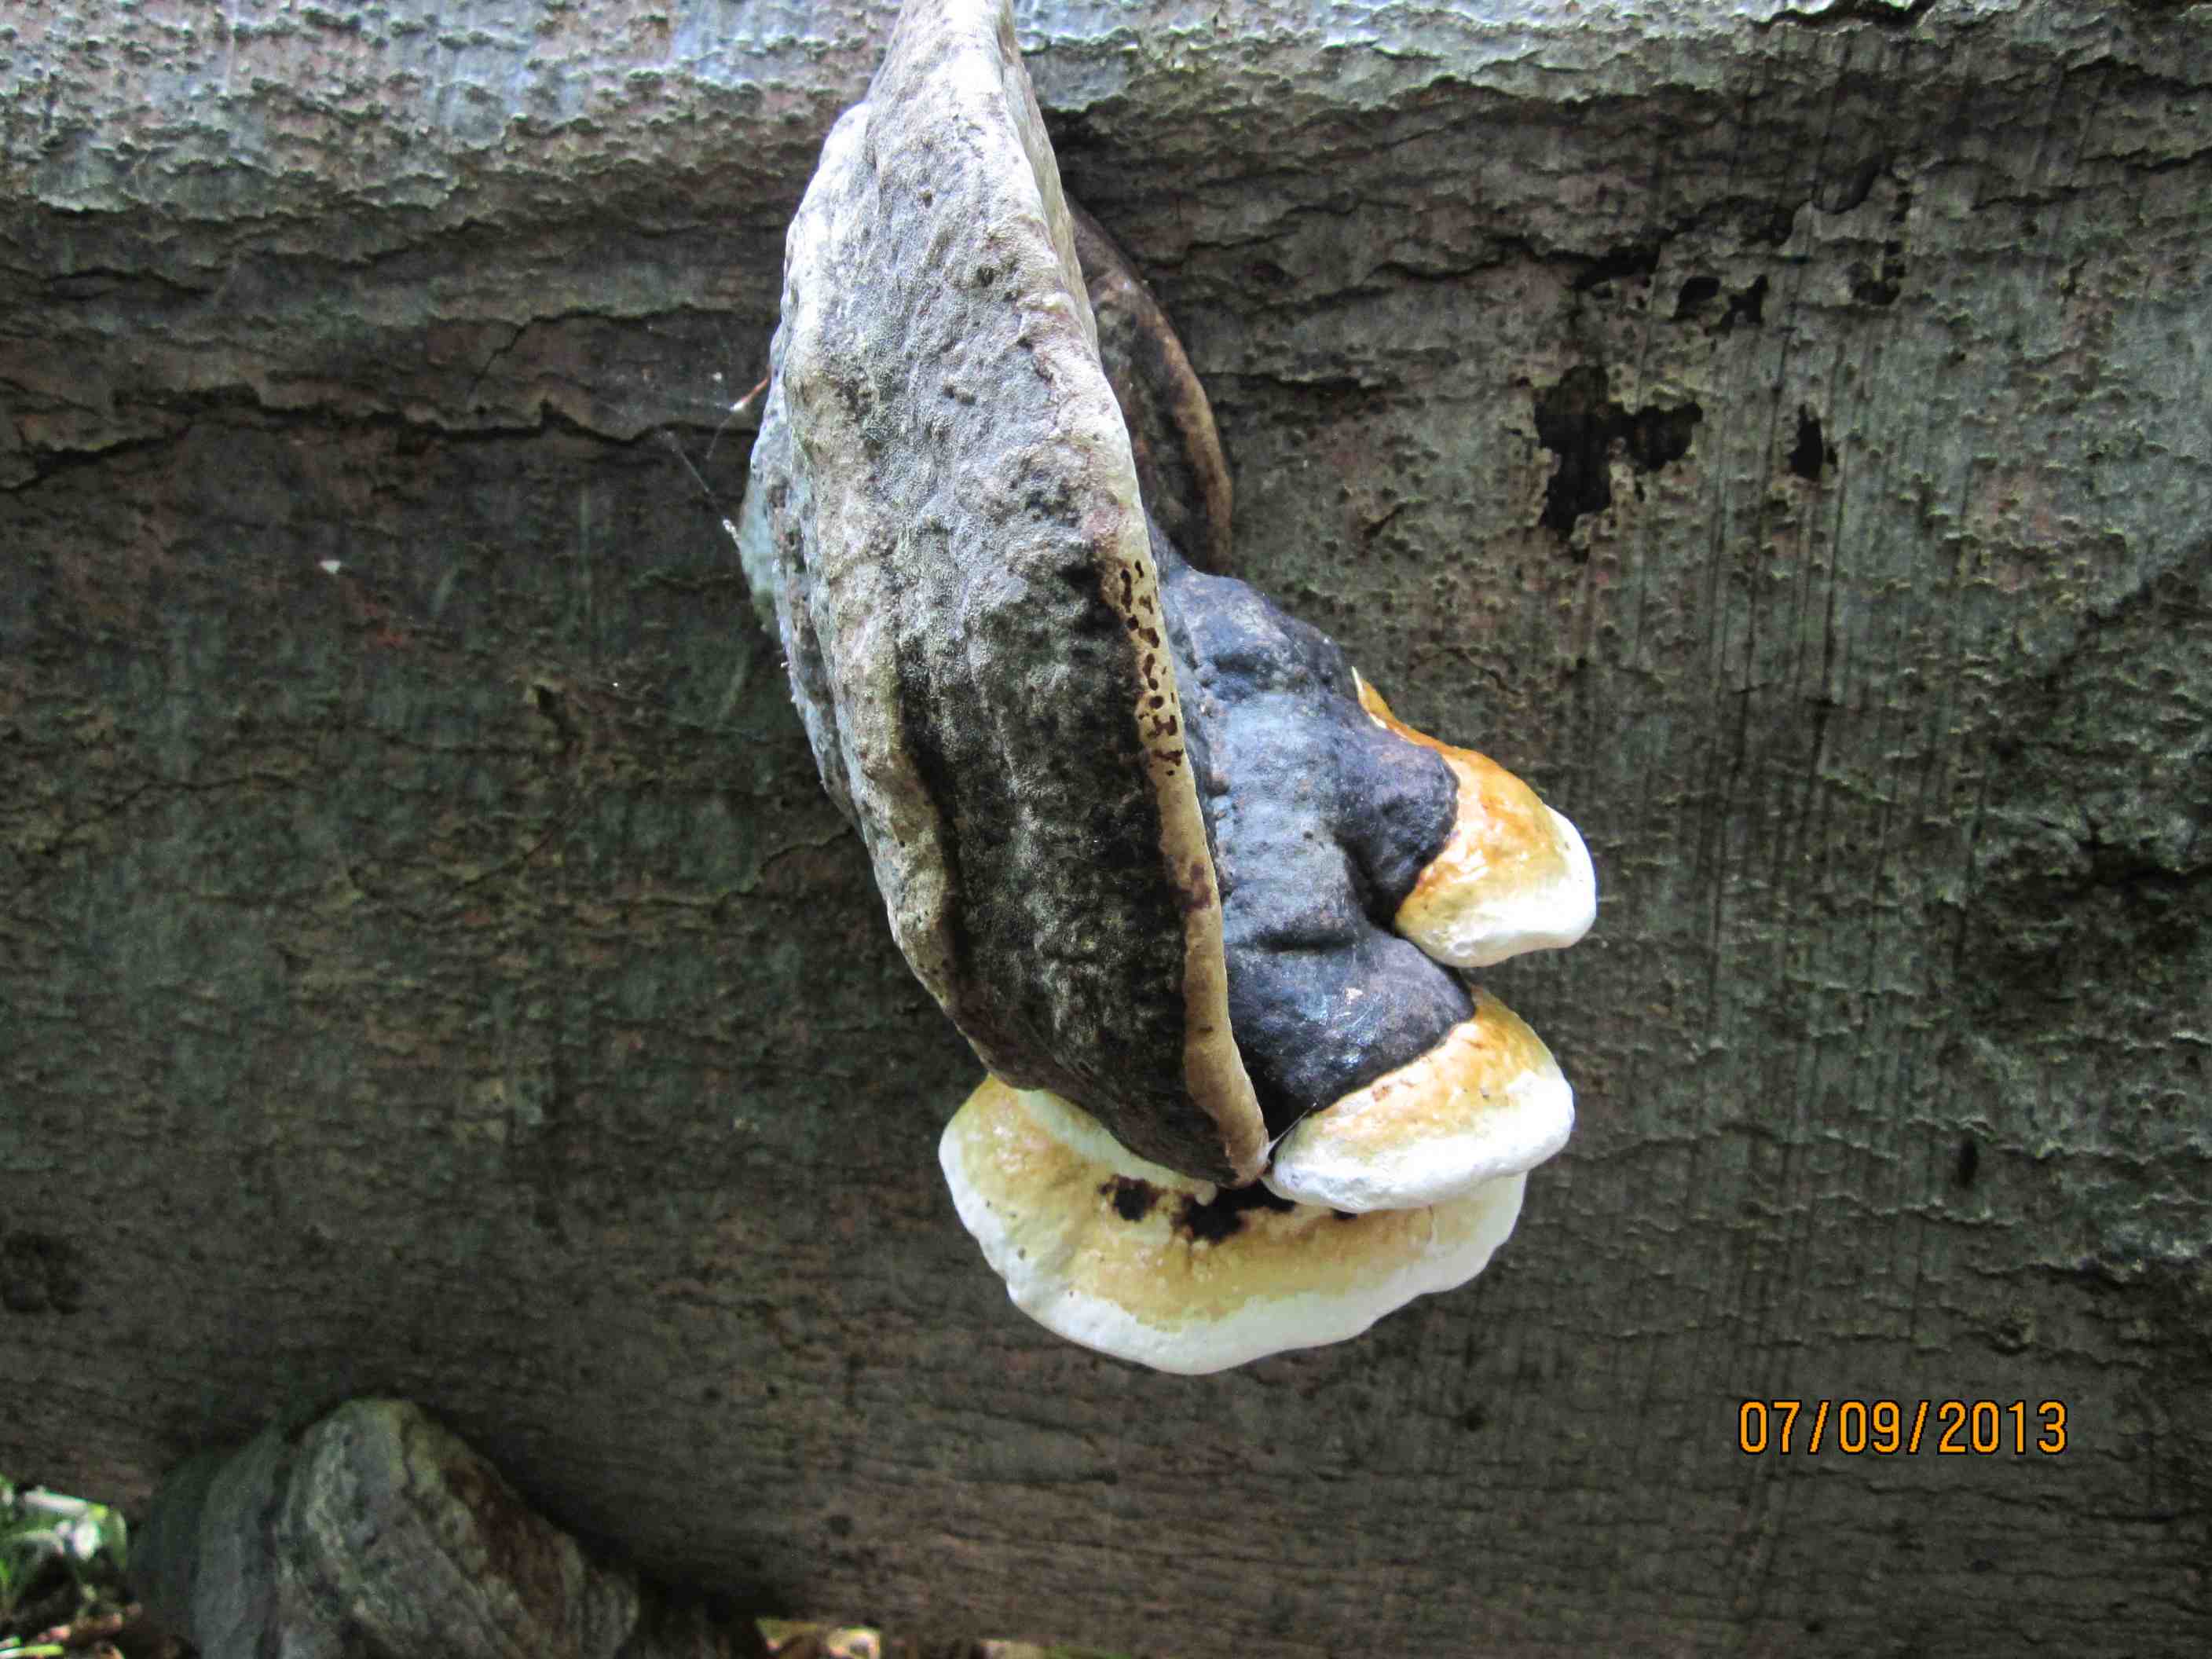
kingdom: Fungi
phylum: Basidiomycota
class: Agaricomycetes
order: Polyporales
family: Fomitopsidaceae
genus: Fomitopsis
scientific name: Fomitopsis pinicola
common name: randbæltet hovporesvamp
